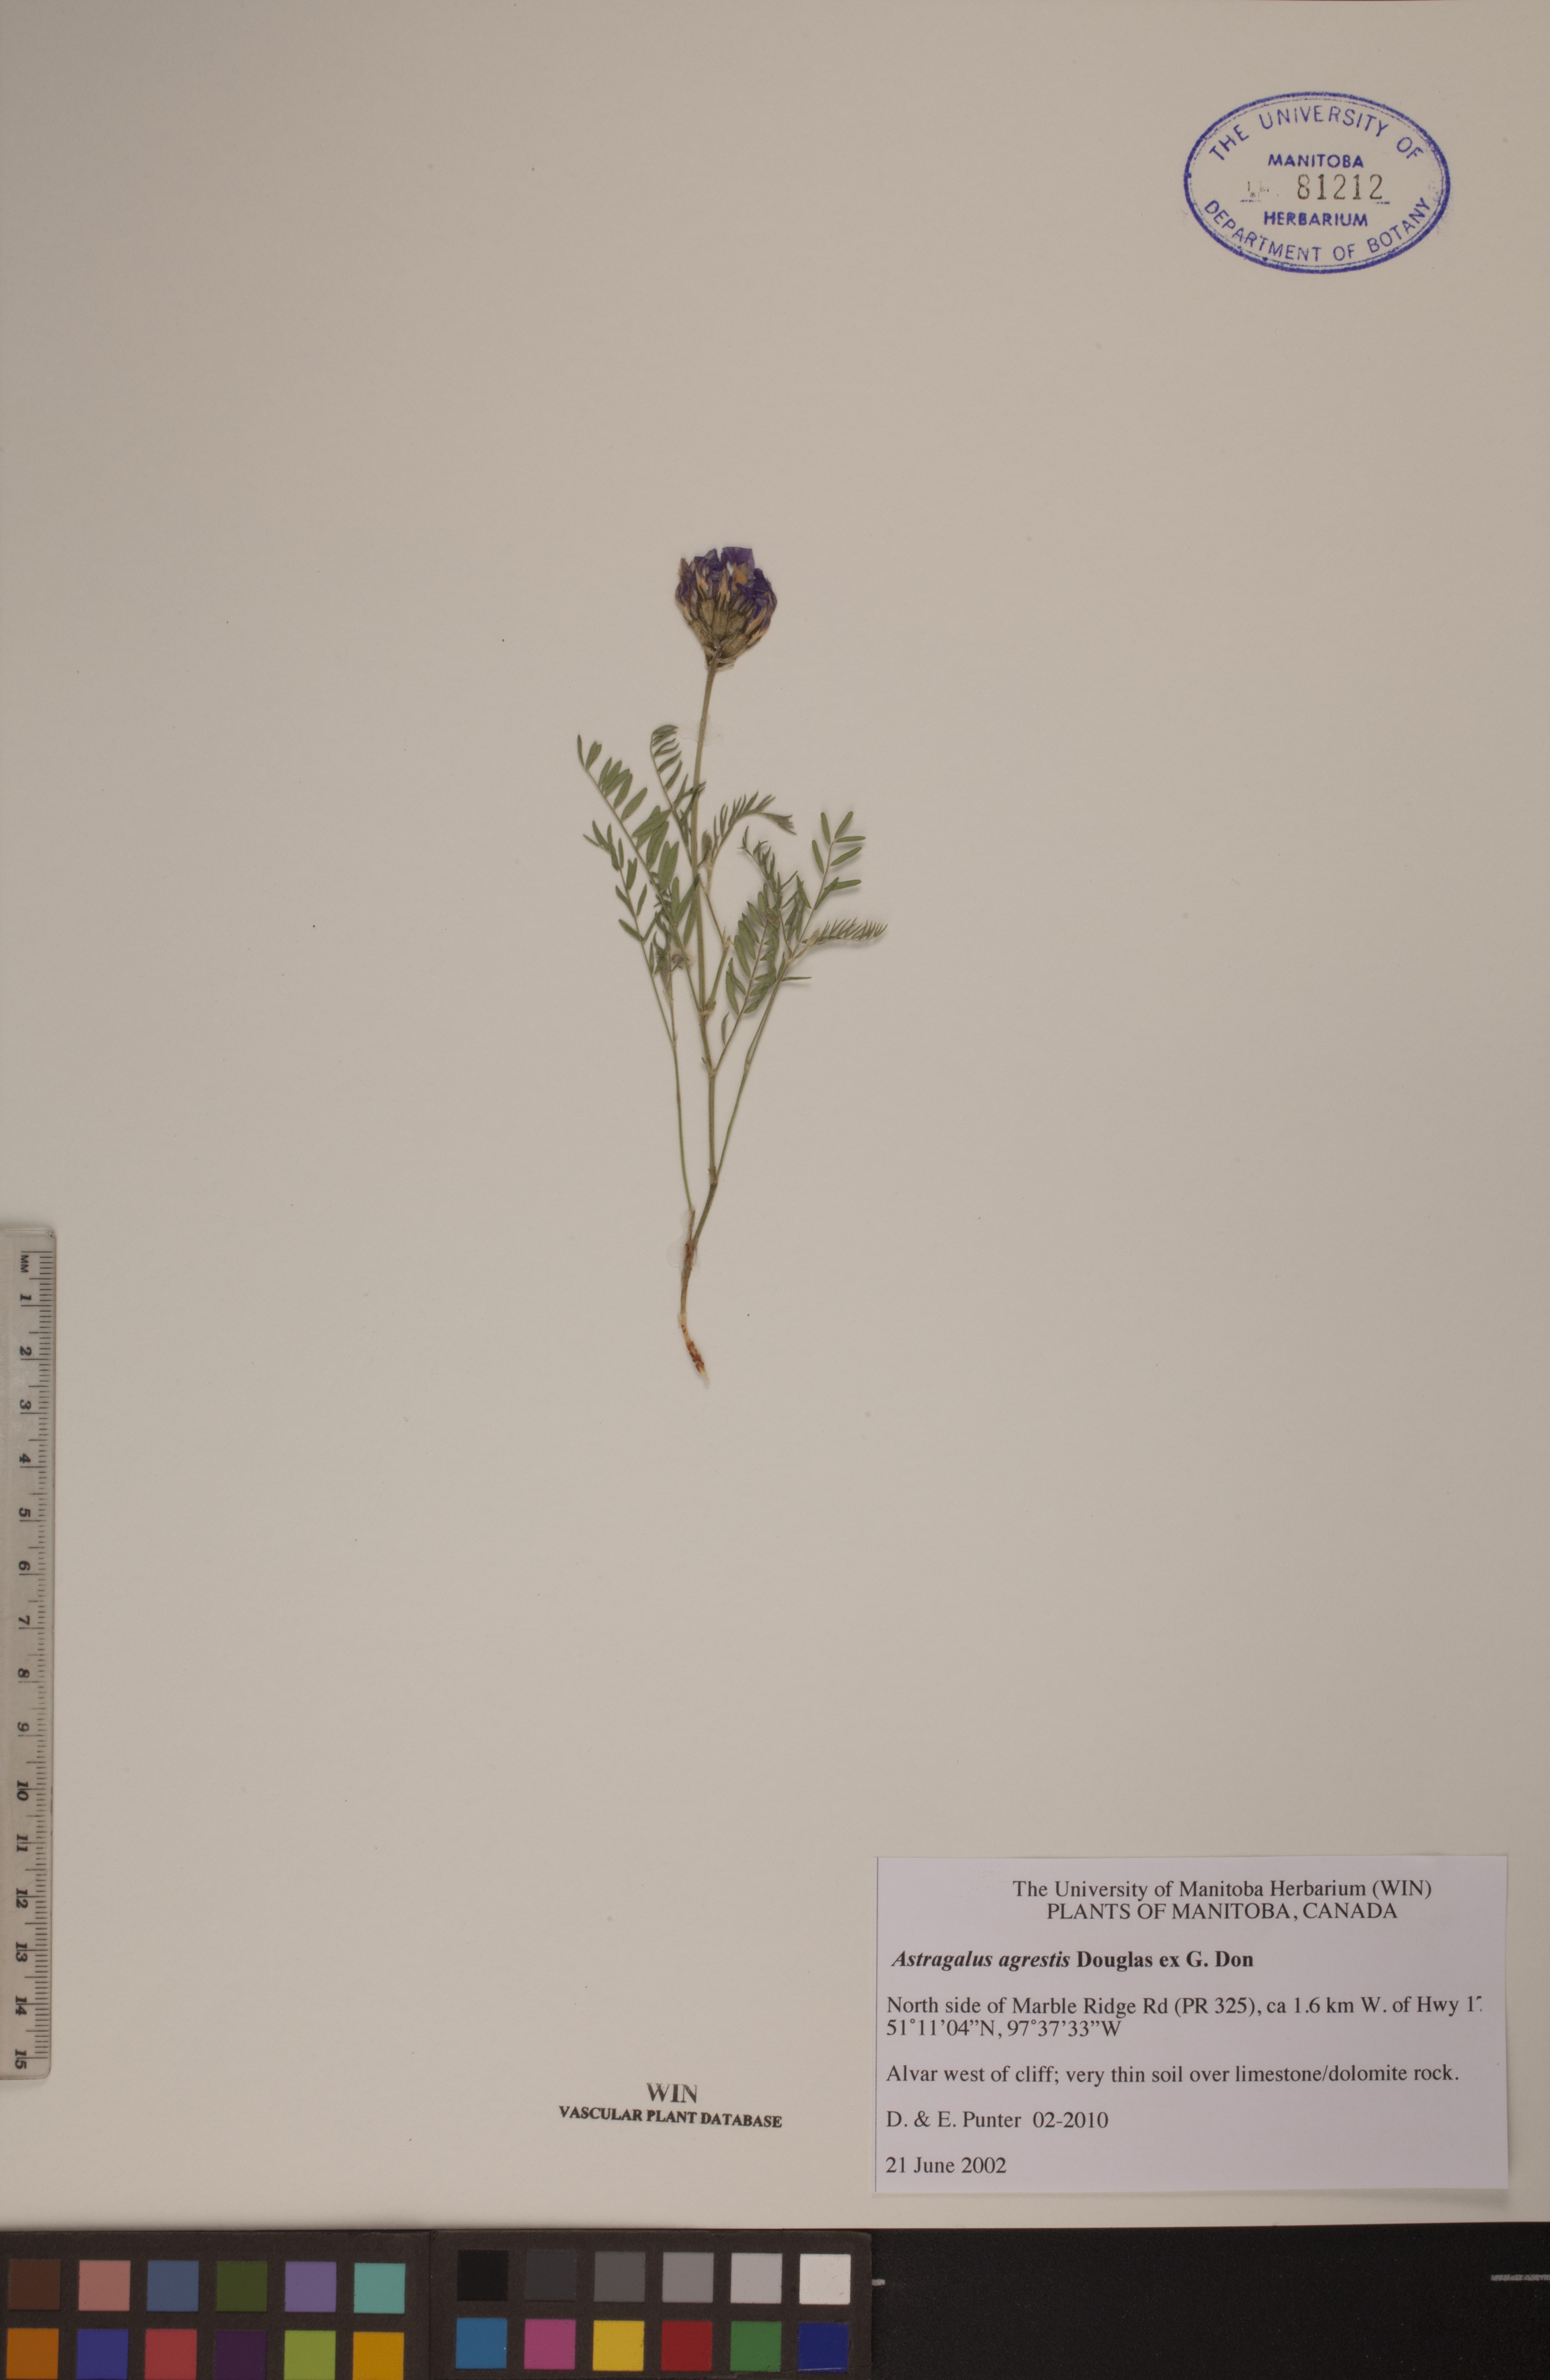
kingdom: Plantae
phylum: Tracheophyta
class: Magnoliopsida
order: Fabales
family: Fabaceae
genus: Astragalus
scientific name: Astragalus agrestis
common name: Field milk-vetch
